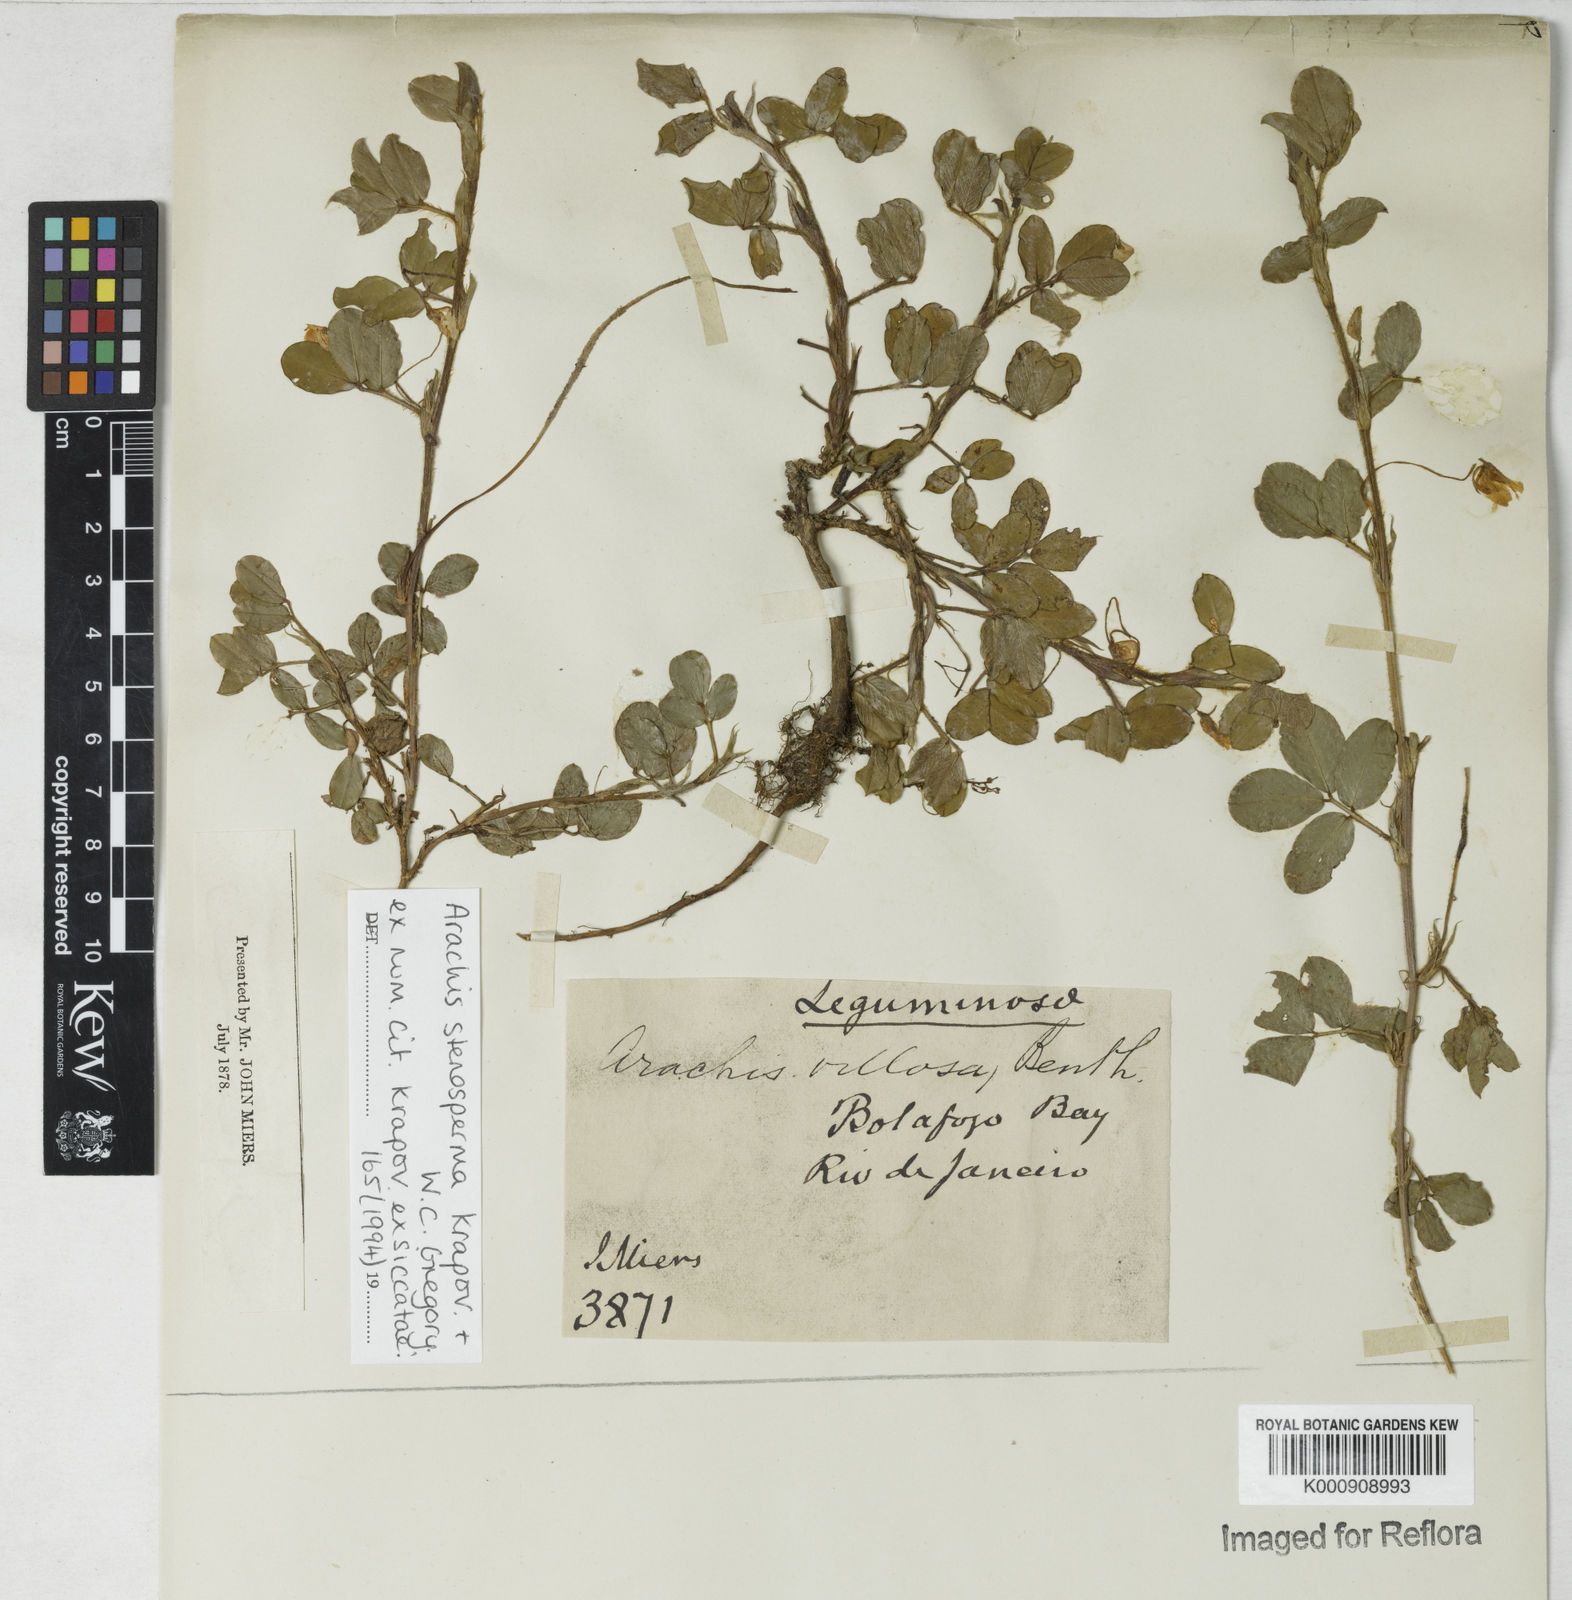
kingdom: Plantae
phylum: Tracheophyta
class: Magnoliopsida
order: Fabales
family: Fabaceae
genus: Arachis
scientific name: Arachis stenosperma
